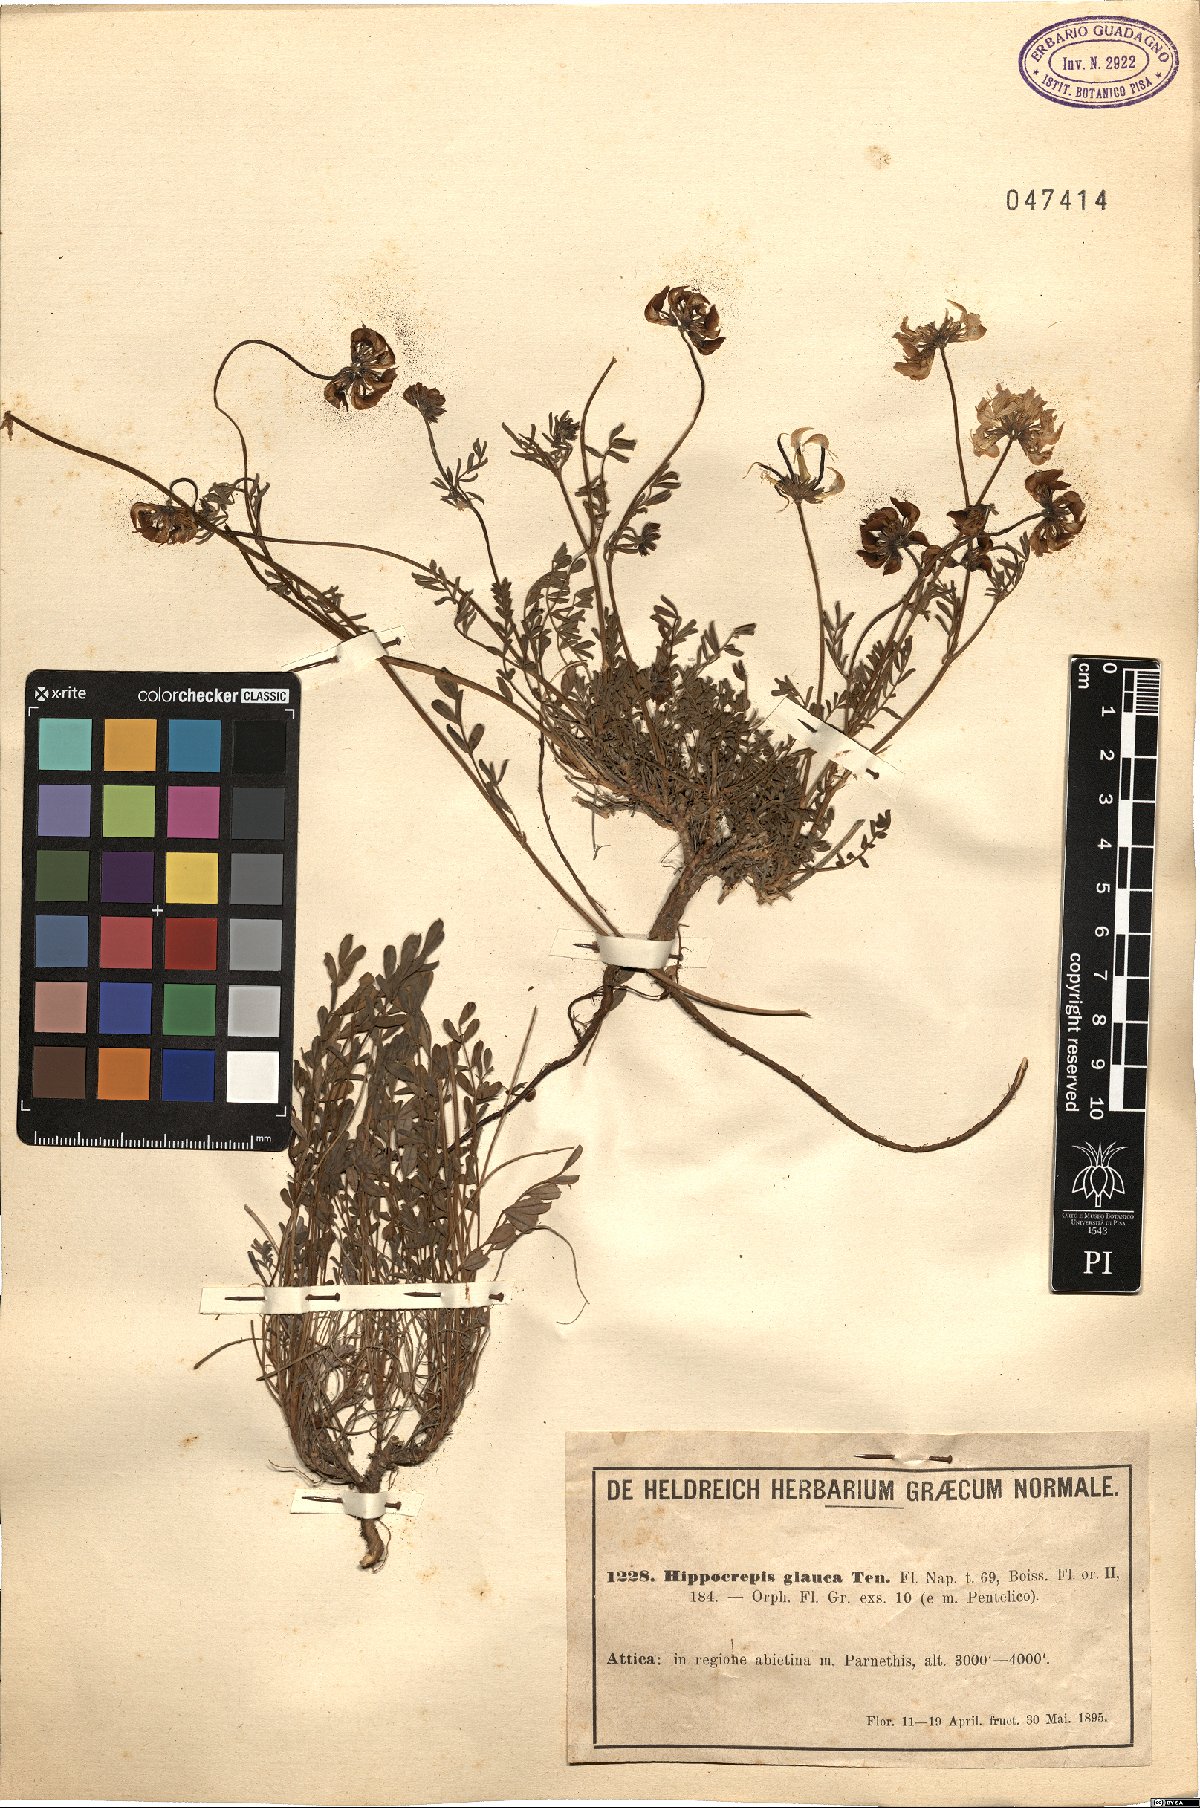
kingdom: Plantae
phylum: Tracheophyta
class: Magnoliopsida
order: Fabales
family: Fabaceae
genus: Hippocrepis
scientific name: Hippocrepis glauca
